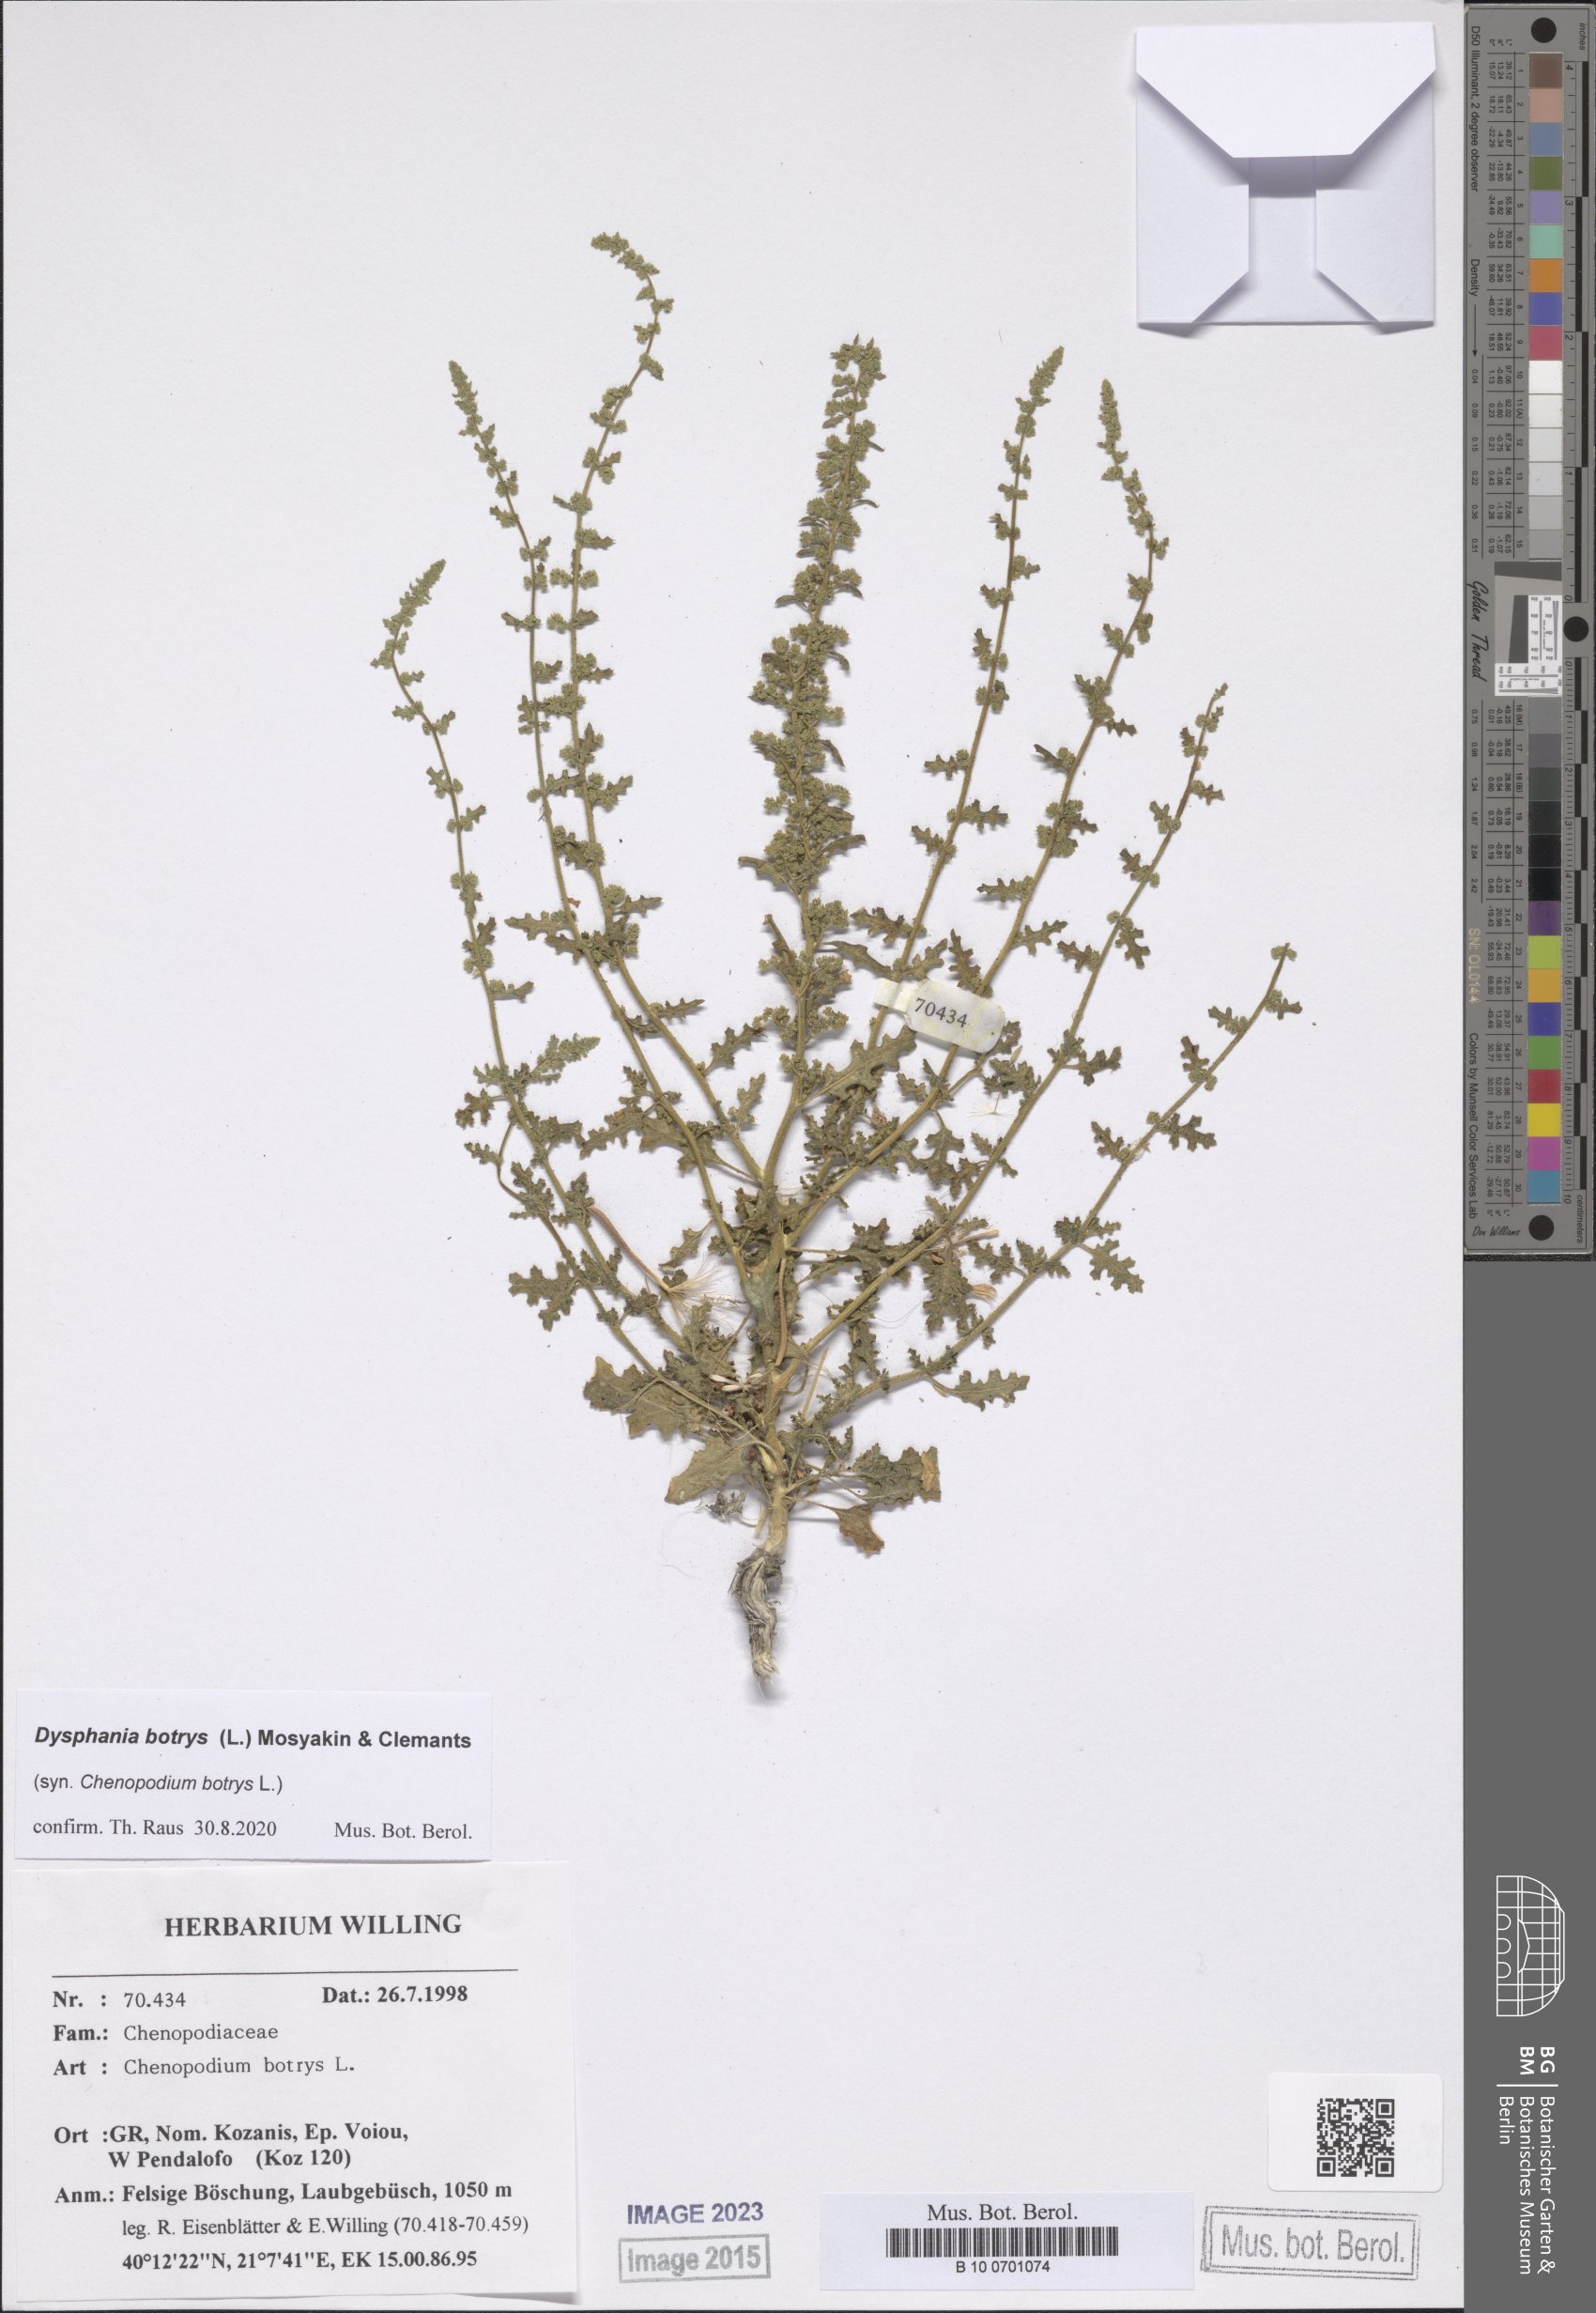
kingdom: Plantae
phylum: Tracheophyta
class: Magnoliopsida
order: Caryophyllales
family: Amaranthaceae
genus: Dysphania
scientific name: Dysphania botrys
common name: Feather-geranium
